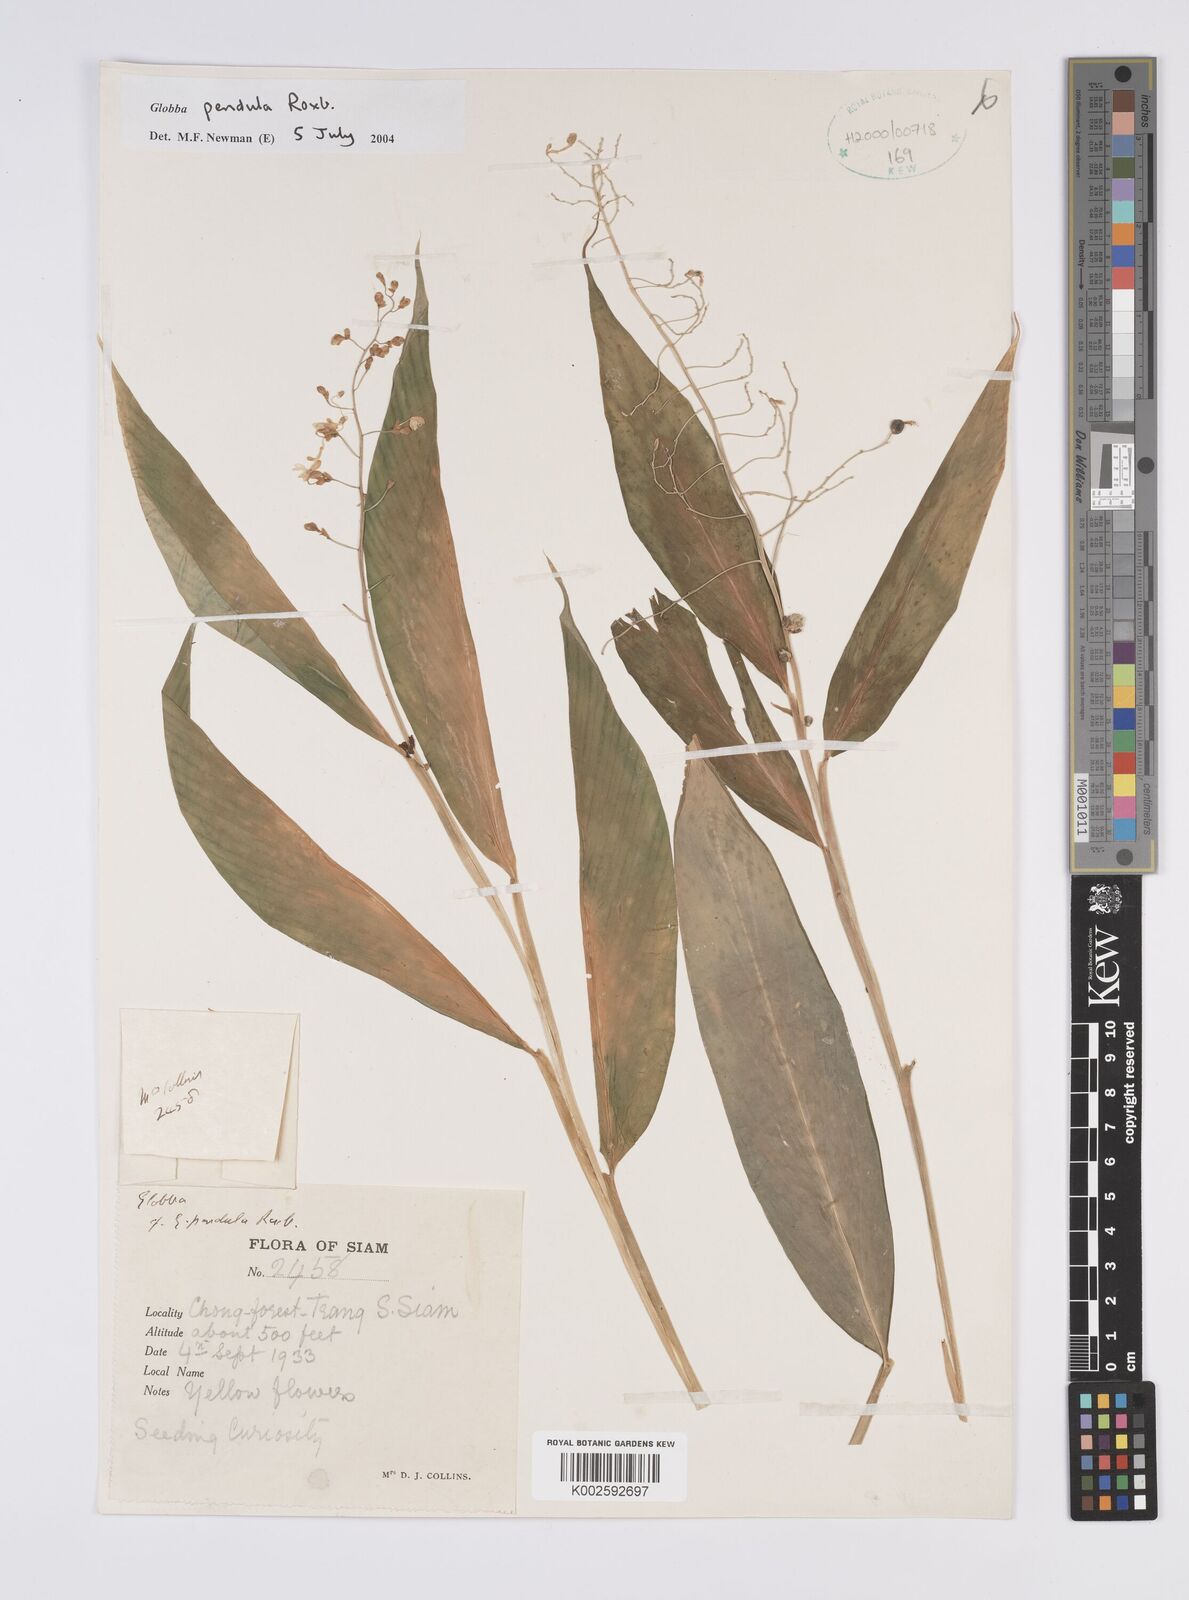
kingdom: Plantae
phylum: Tracheophyta
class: Liliopsida
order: Zingiberales
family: Zingiberaceae
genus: Globba
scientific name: Globba pendula
